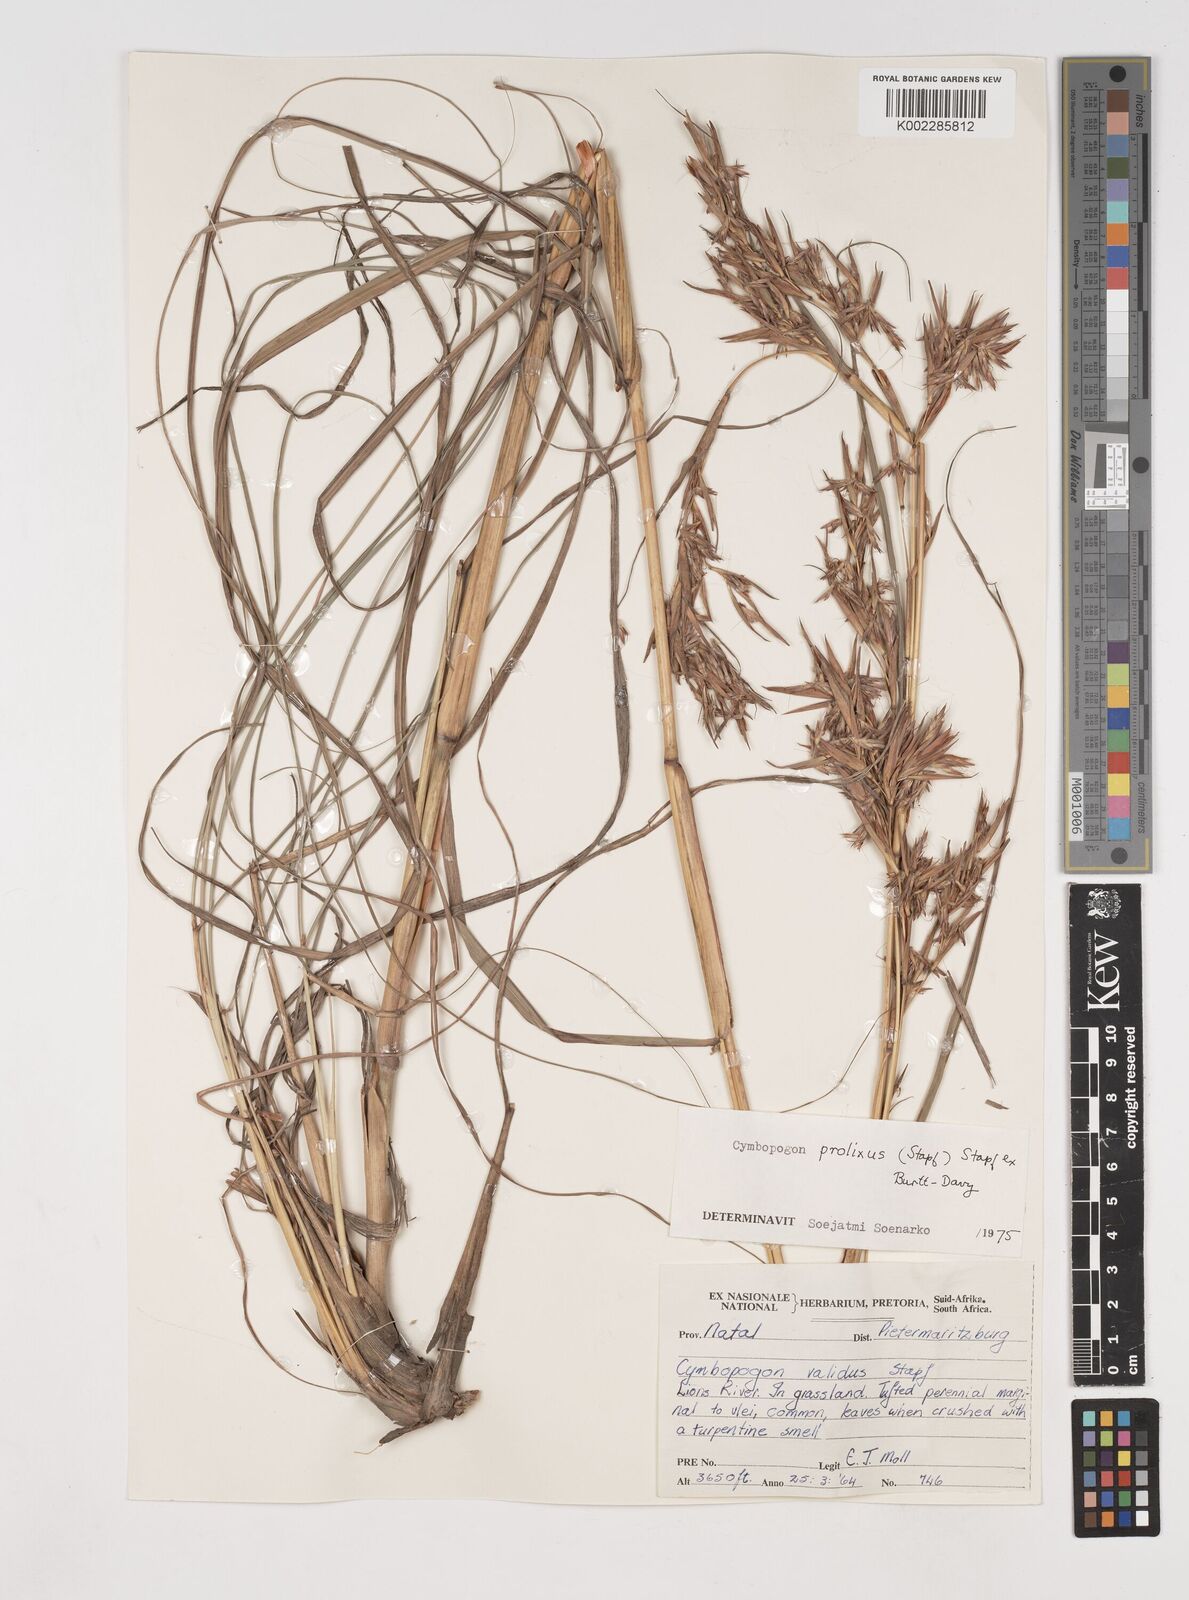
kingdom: Plantae
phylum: Tracheophyta
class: Liliopsida
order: Poales
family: Poaceae
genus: Cymbopogon
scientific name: Cymbopogon nardus
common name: Giant turpentine grass
